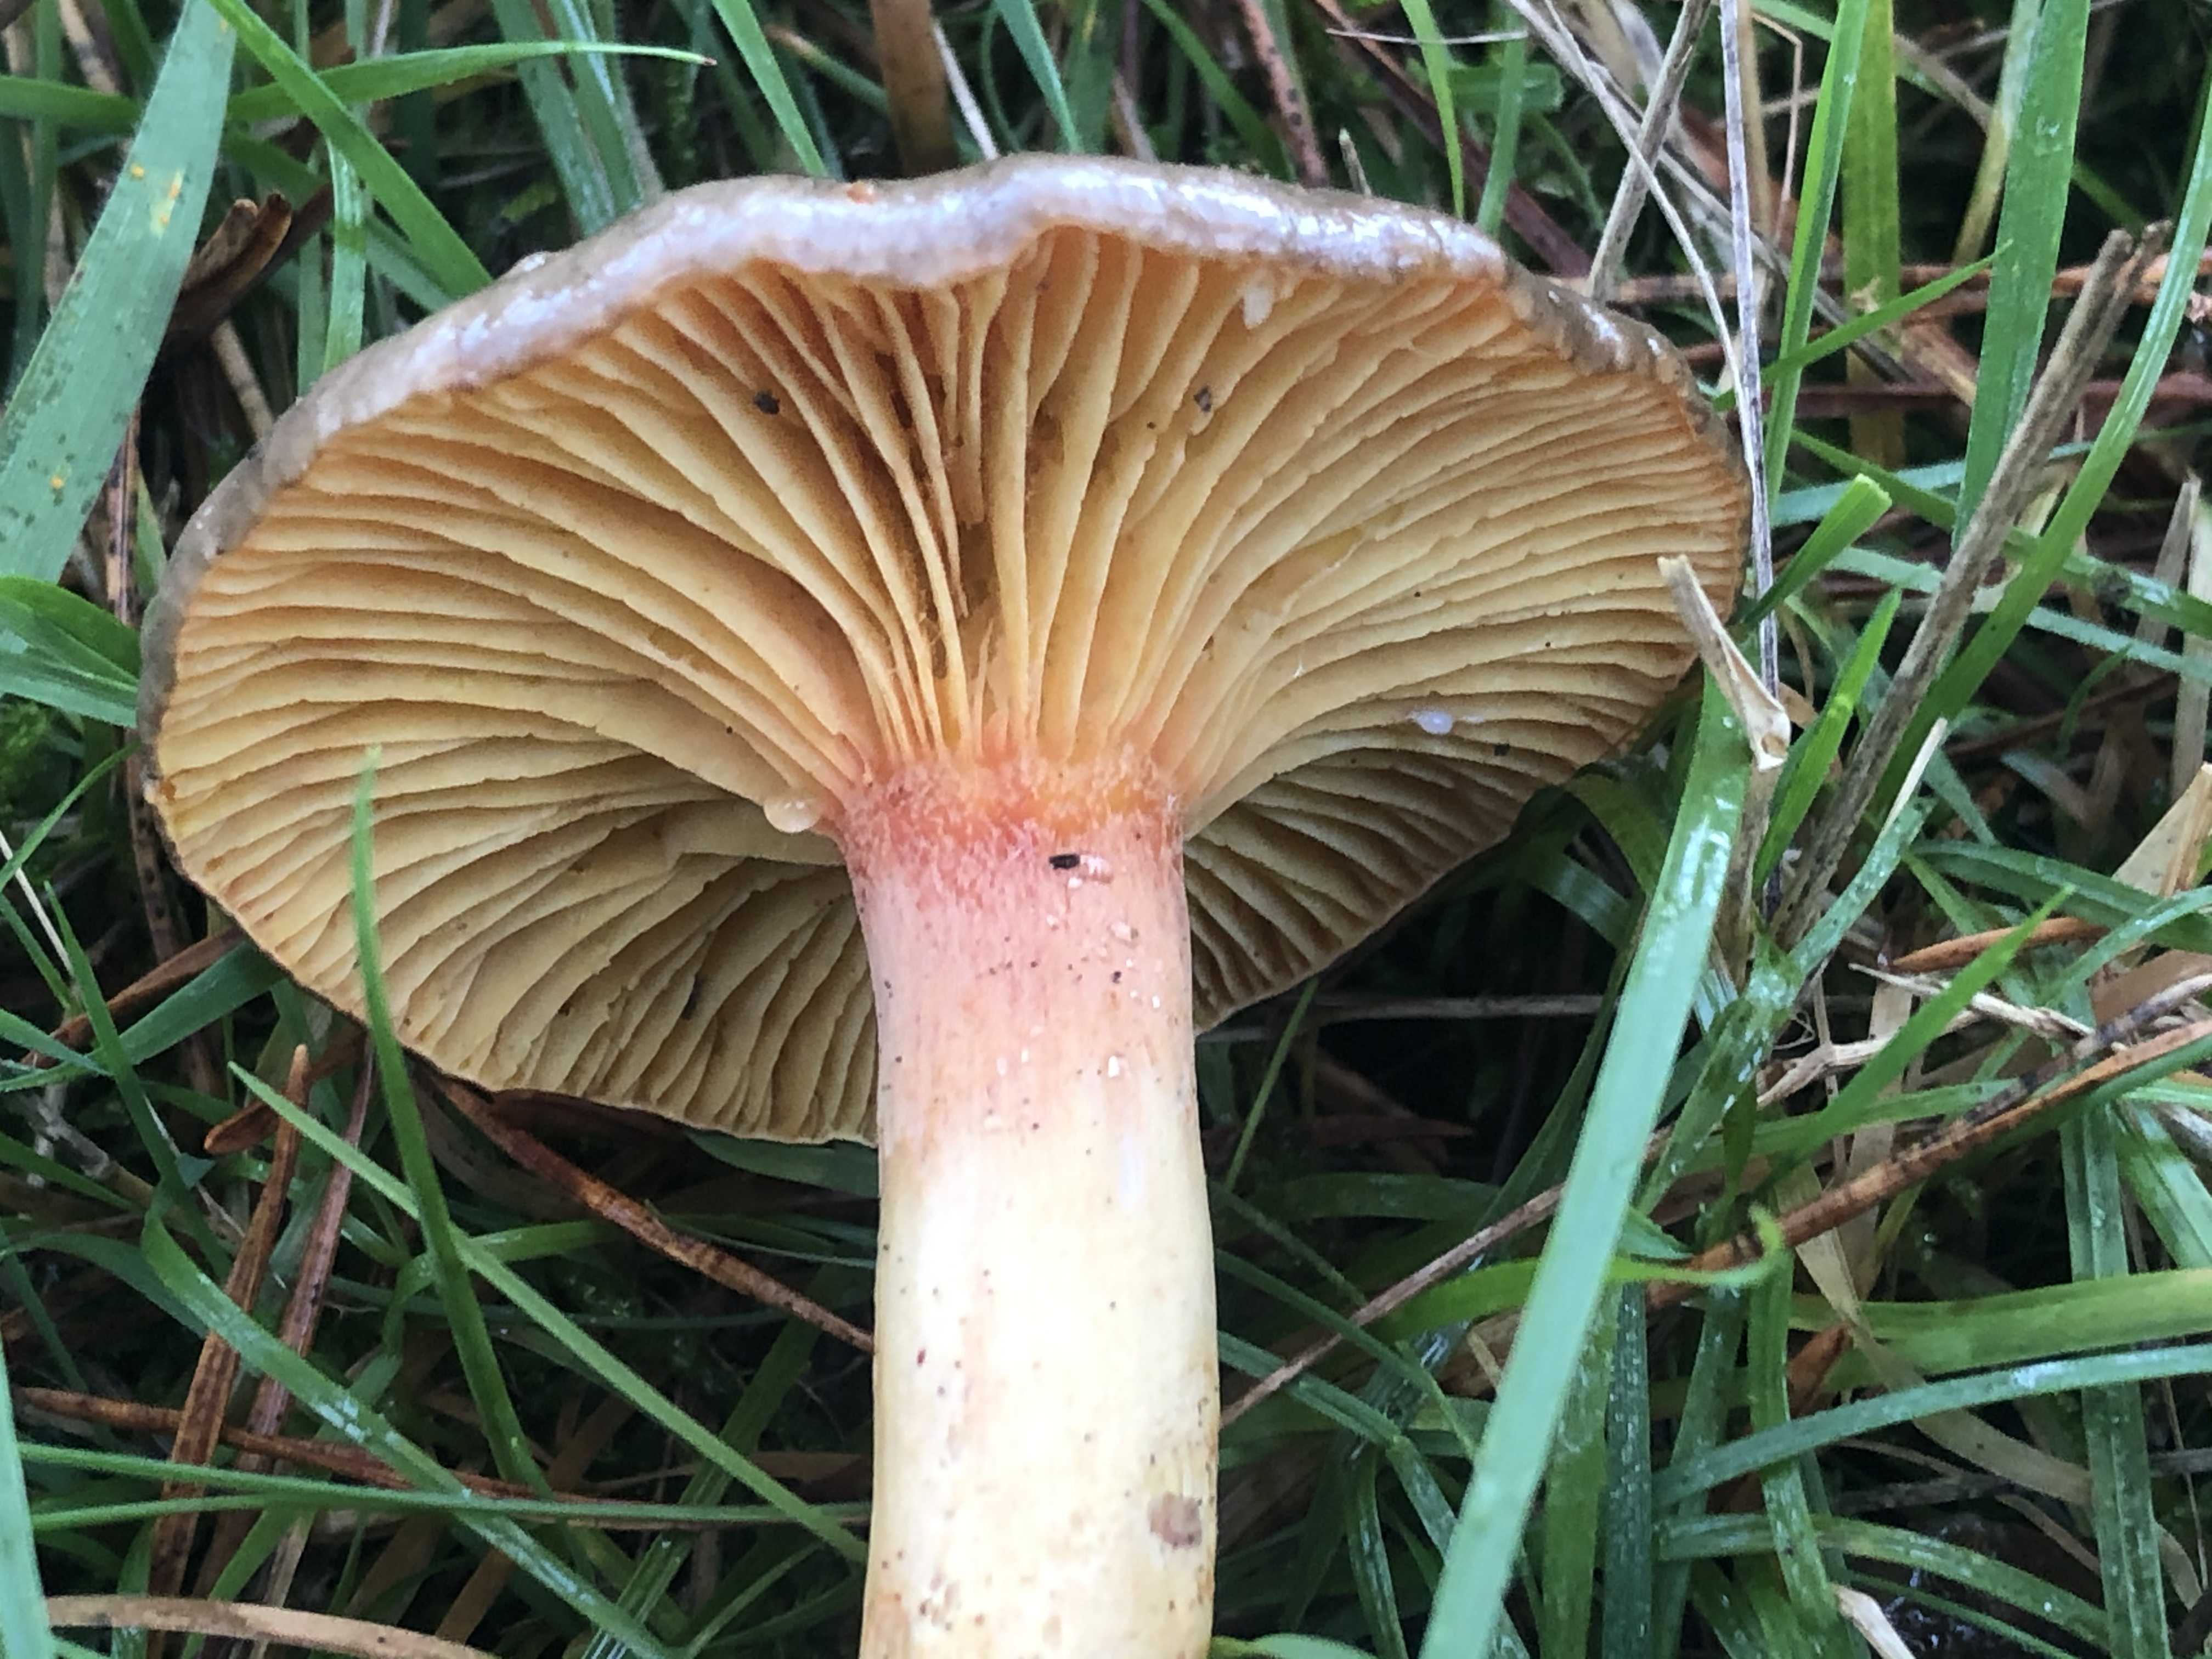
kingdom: Fungi
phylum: Basidiomycota
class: Agaricomycetes
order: Agaricales
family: Hygrophoraceae
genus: Hygrophorus
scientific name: Hygrophorus hypothejus
